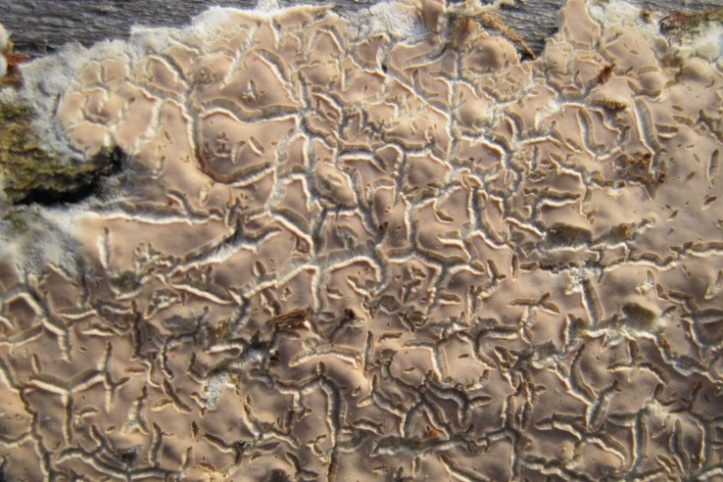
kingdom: Fungi
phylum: Basidiomycota
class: Agaricomycetes
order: Agaricales
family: Physalacriaceae
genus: Cylindrobasidium
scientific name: Cylindrobasidium evolvens
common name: sprækkehinde
